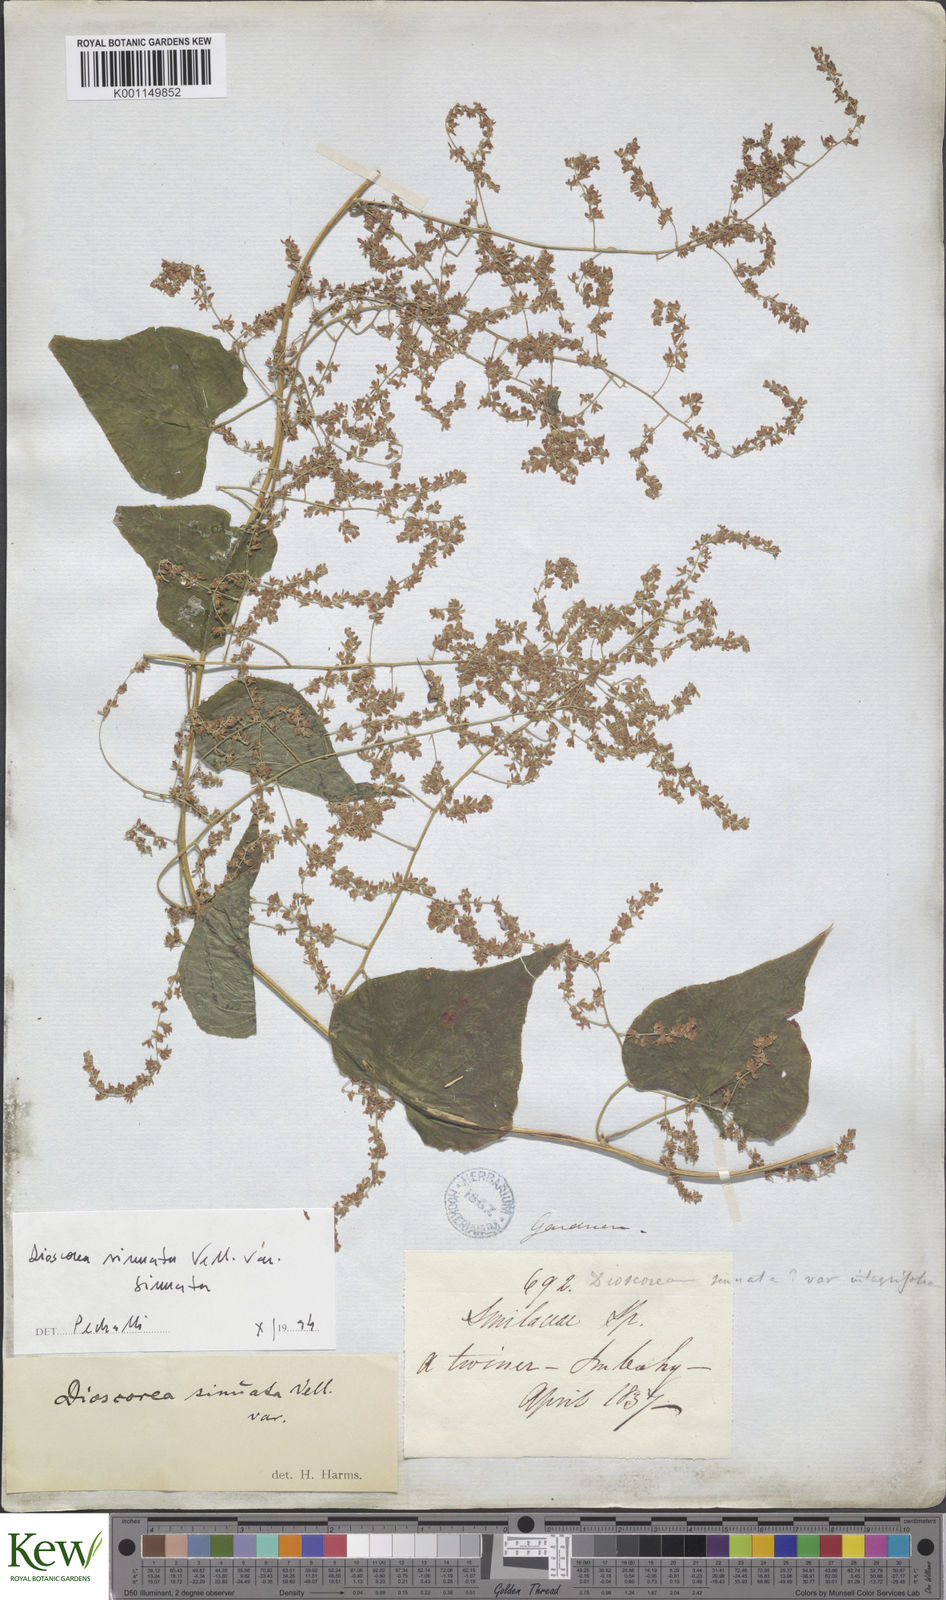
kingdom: Plantae
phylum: Tracheophyta
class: Liliopsida
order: Dioscoreales
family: Dioscoreaceae
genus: Dioscorea
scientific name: Dioscorea sinuata
